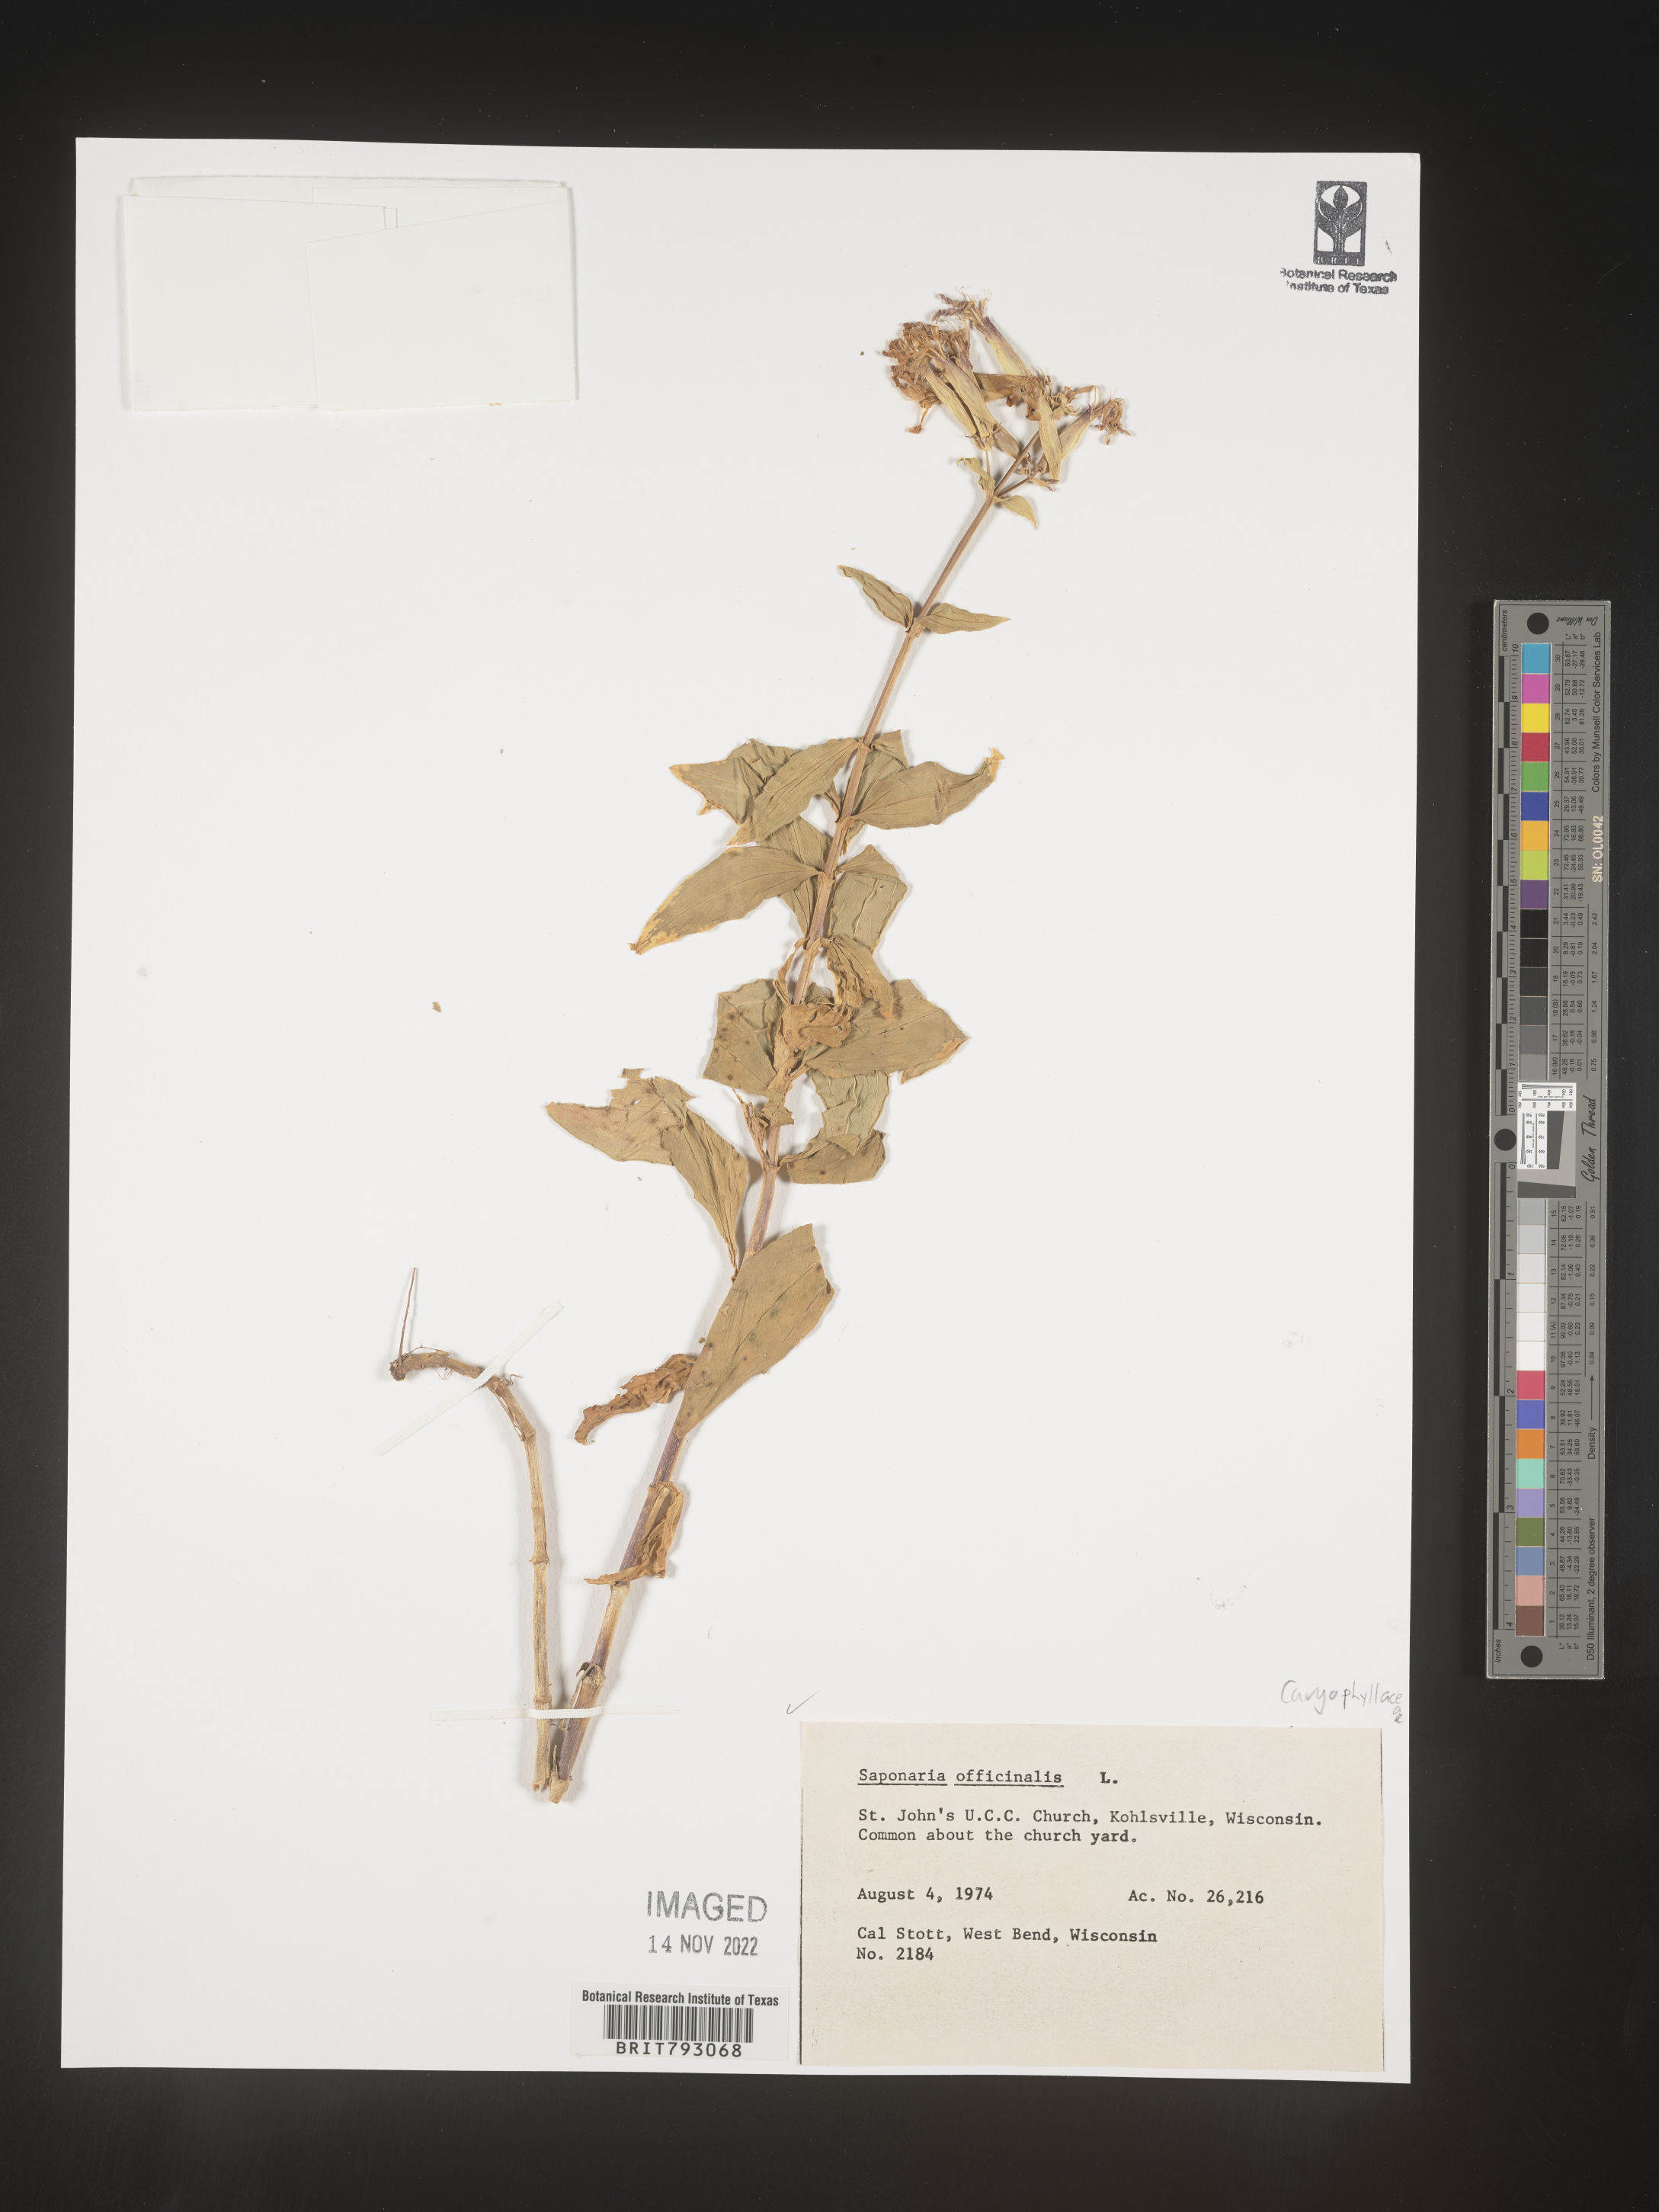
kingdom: Plantae
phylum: Tracheophyta
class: Magnoliopsida
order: Caryophyllales
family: Caryophyllaceae
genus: Saponaria
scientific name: Saponaria officinalis
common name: Soapwort
